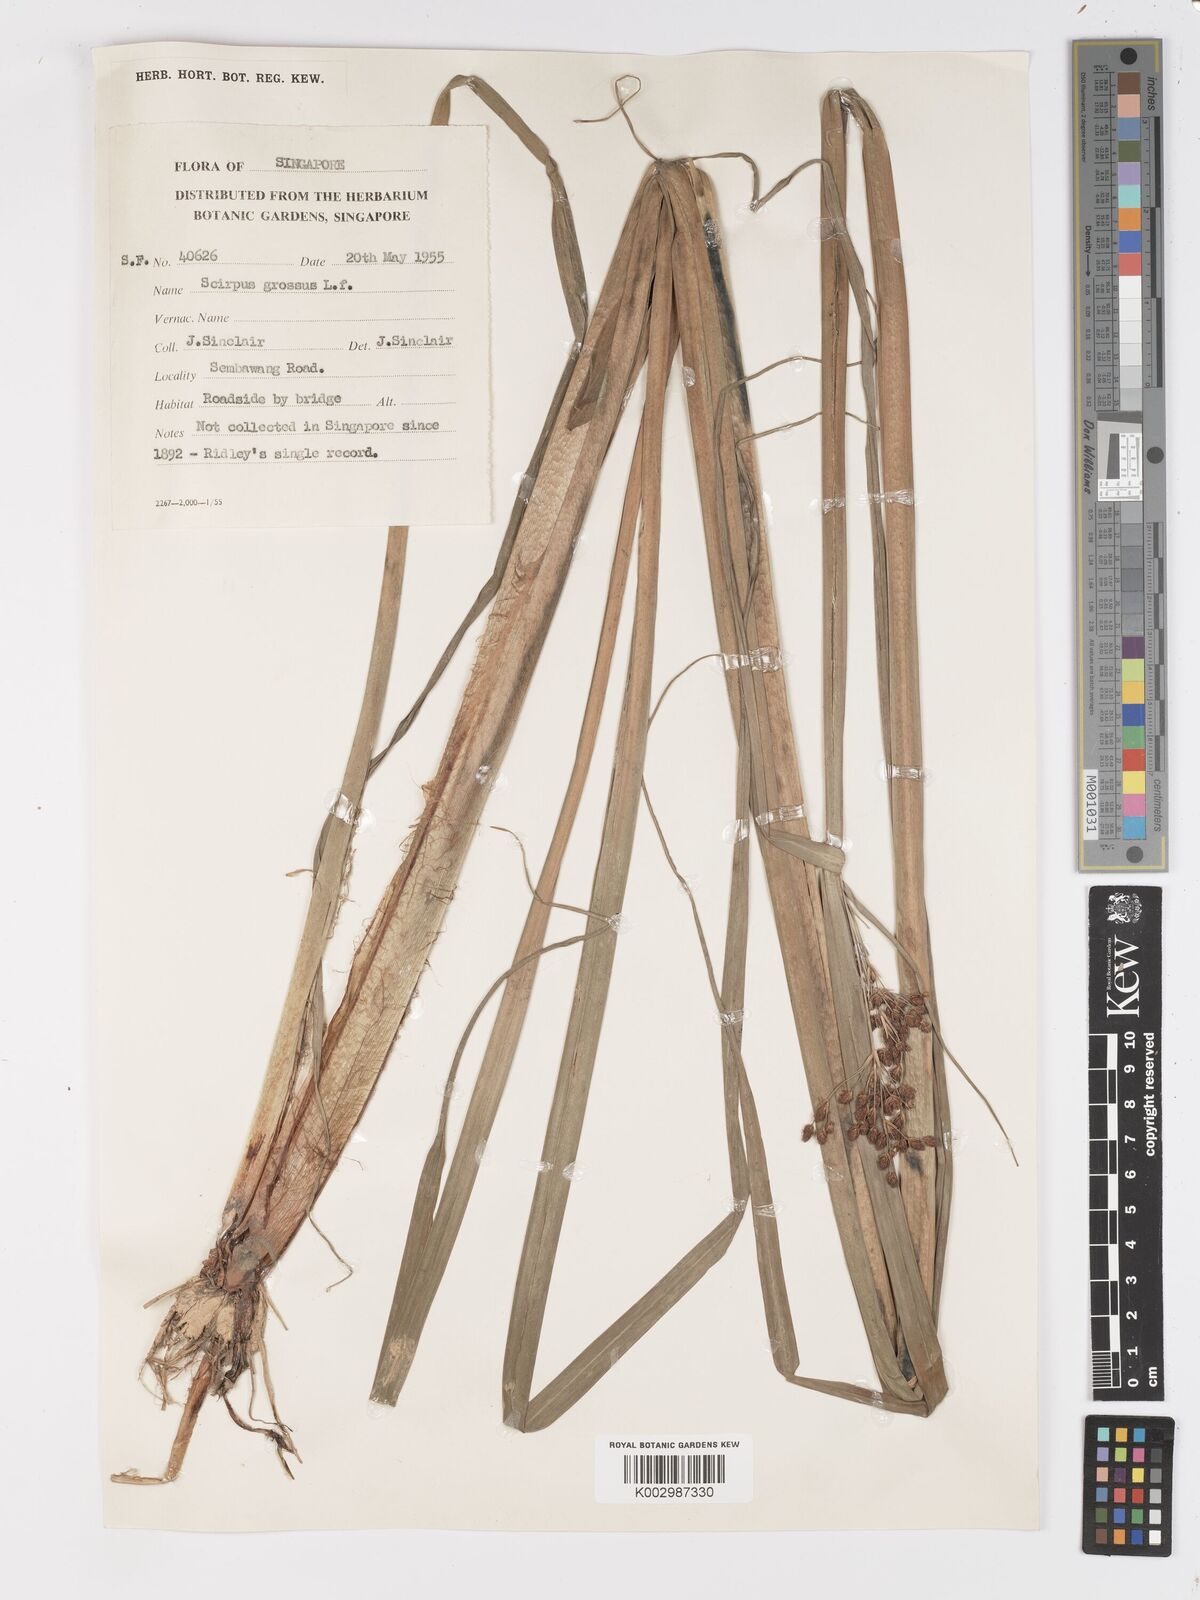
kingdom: Plantae
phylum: Tracheophyta
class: Liliopsida
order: Poales
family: Cyperaceae
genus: Actinoscirpus
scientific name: Actinoscirpus grossus
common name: Giant bur rush
